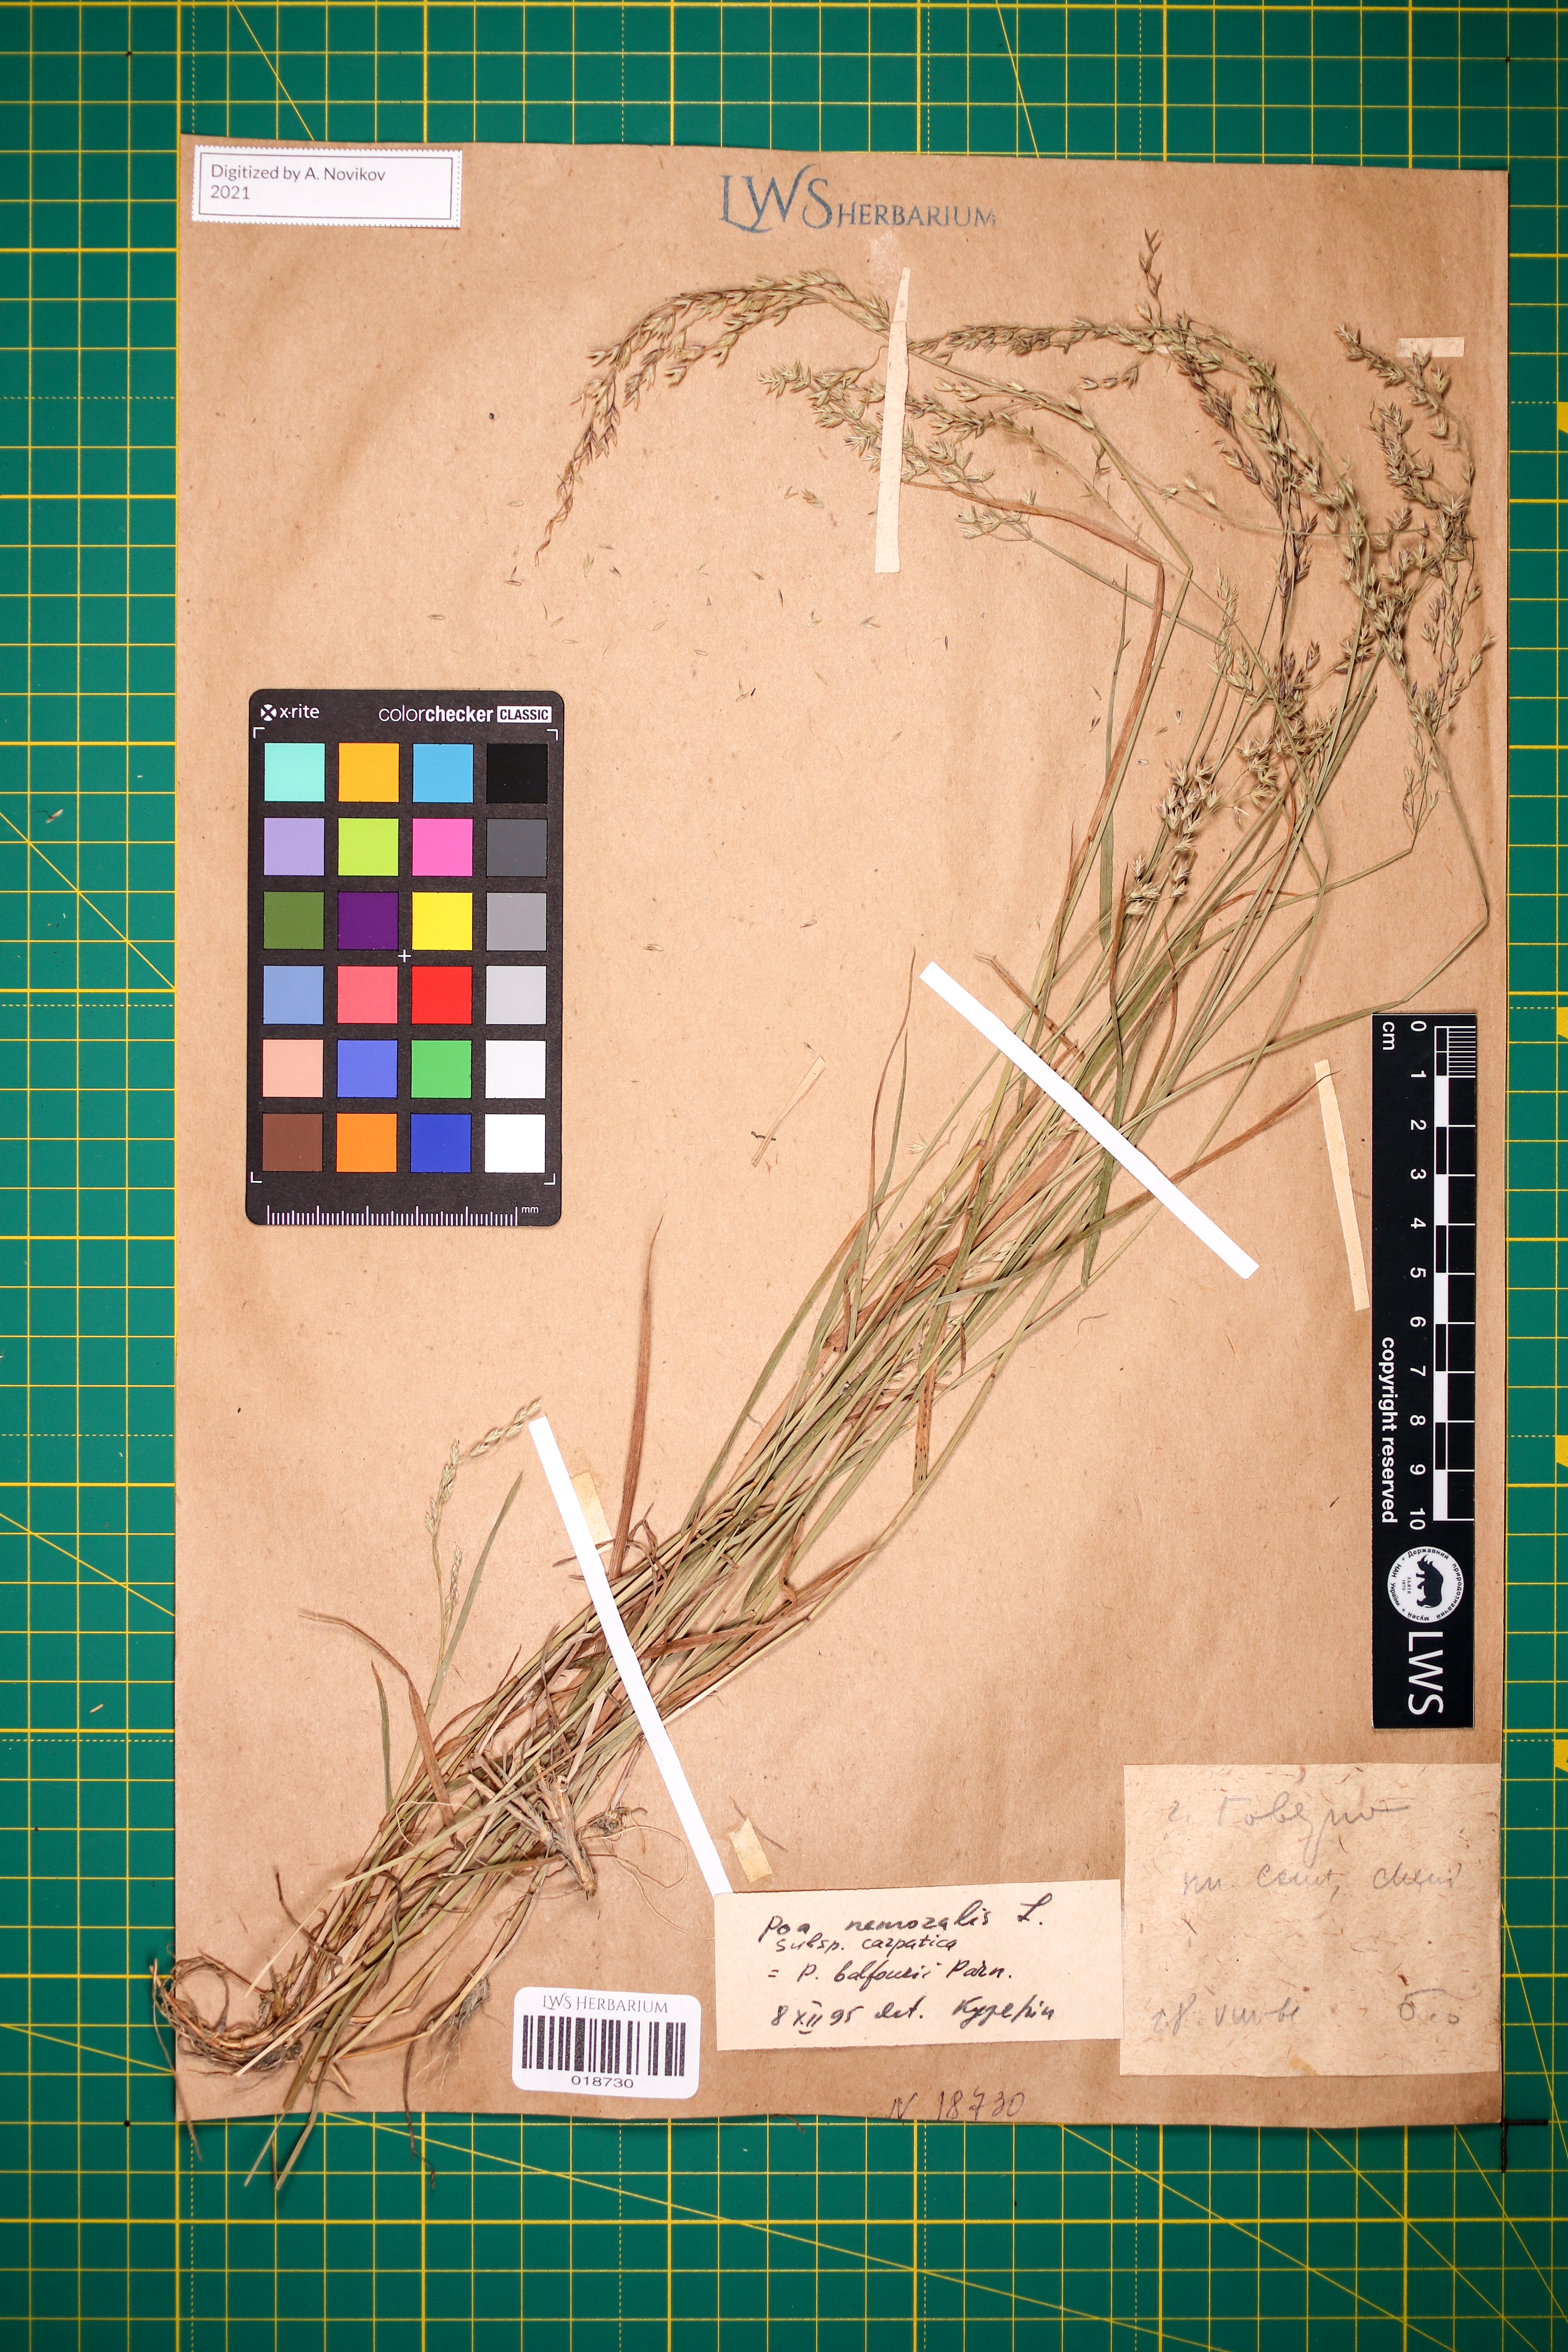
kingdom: Plantae
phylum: Tracheophyta
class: Liliopsida
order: Poales
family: Poaceae
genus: Poa
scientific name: Poa carpatica
